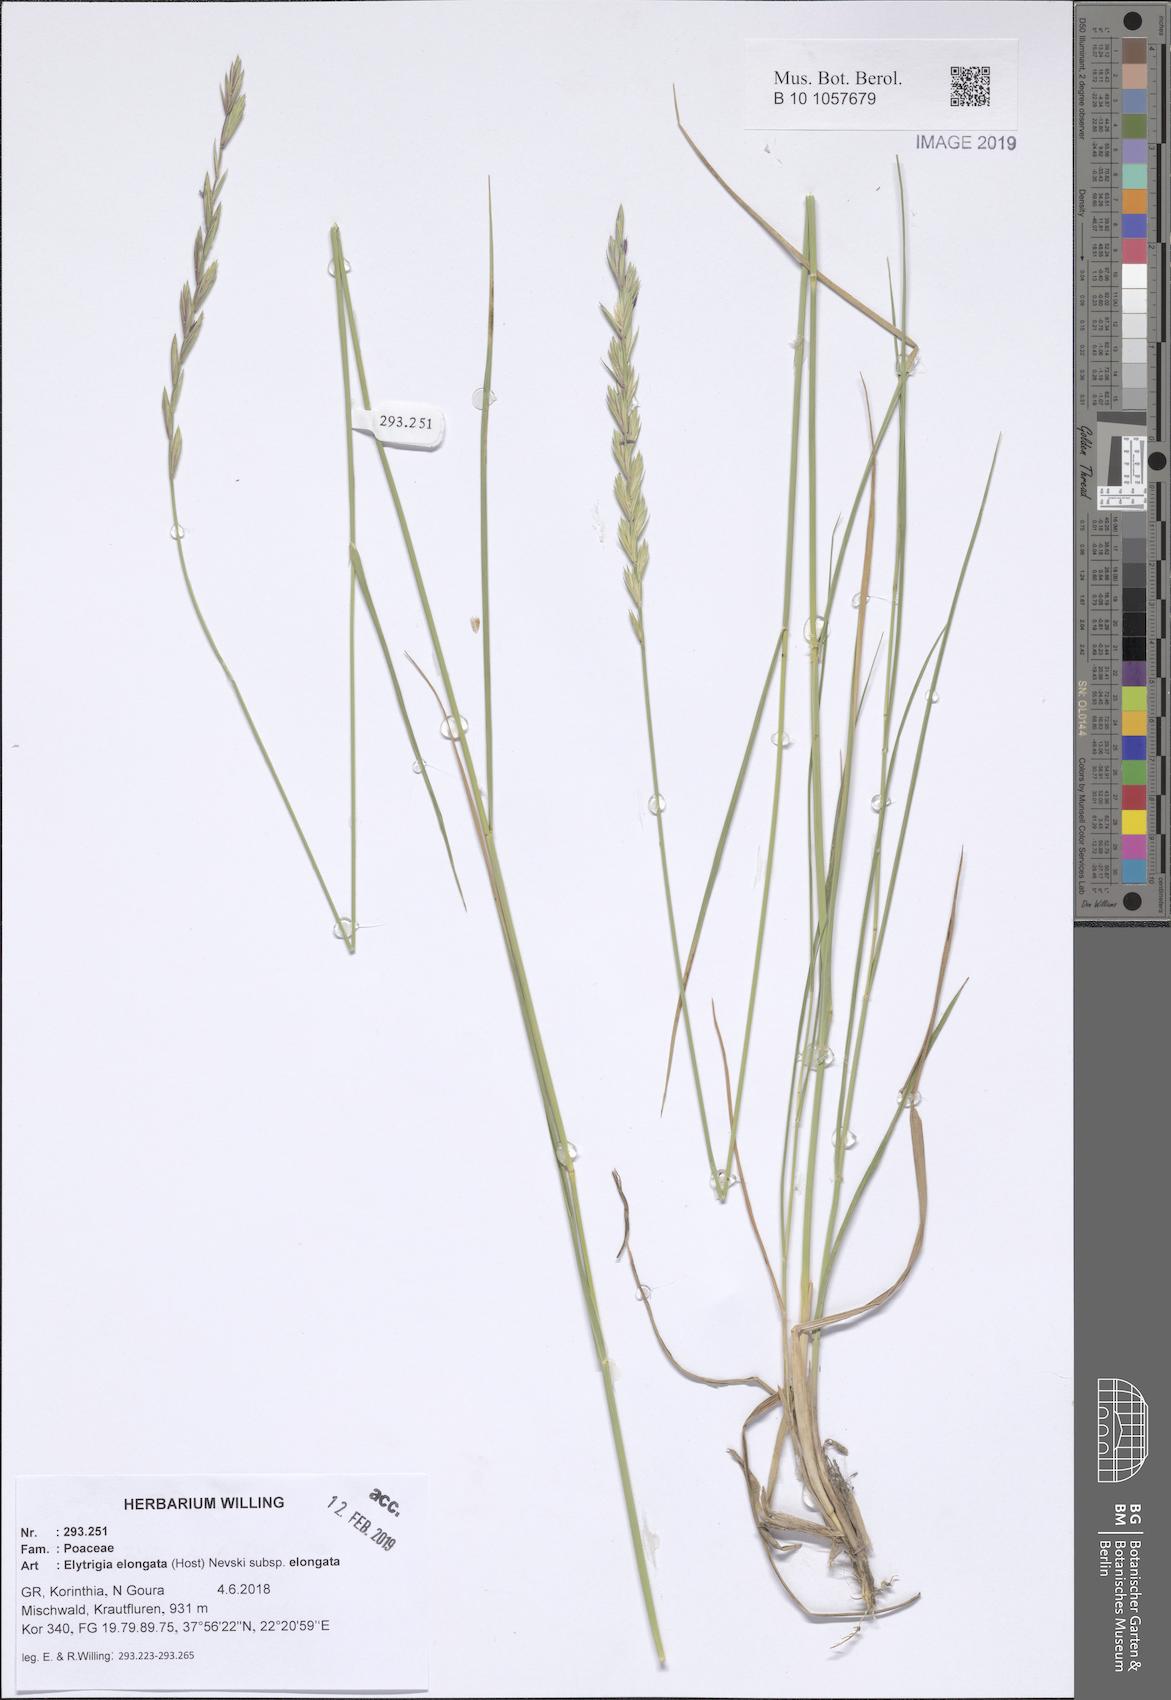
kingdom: Plantae
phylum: Tracheophyta
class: Liliopsida
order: Poales
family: Poaceae
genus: Thinopyrum
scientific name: Thinopyrum elongatum
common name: Tall wheatgrass
